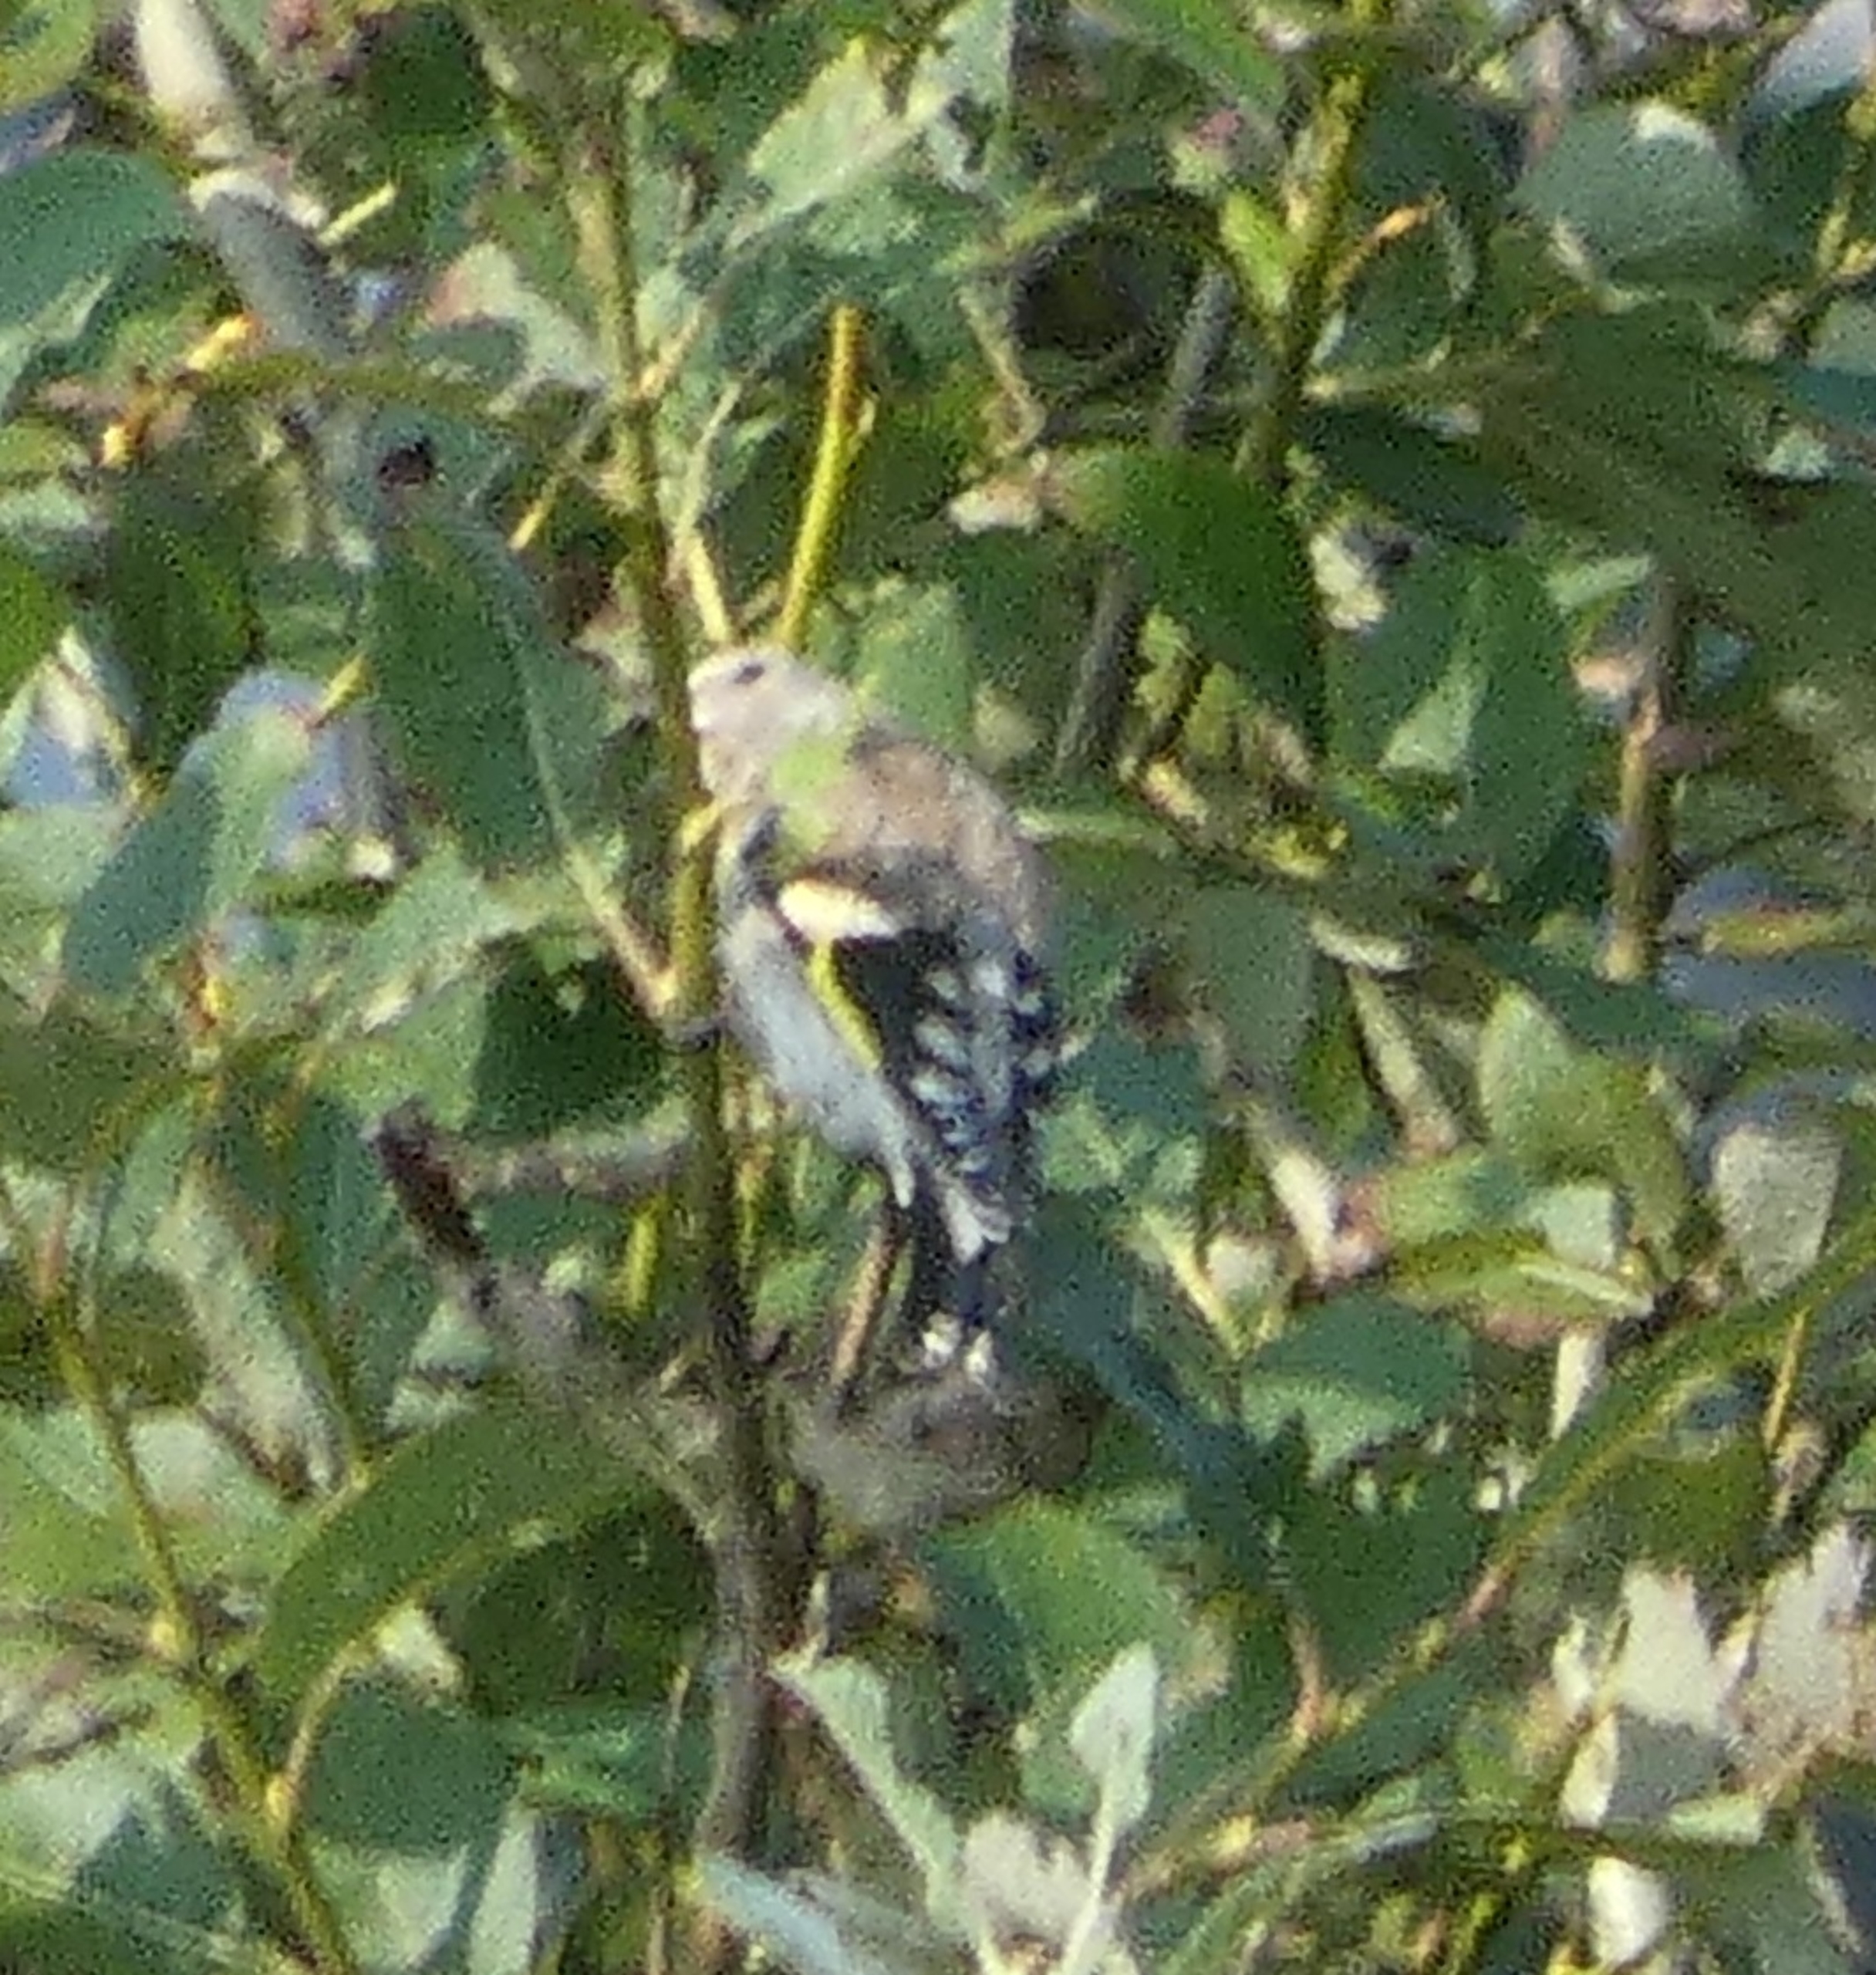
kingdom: Animalia
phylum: Chordata
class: Aves
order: Passeriformes
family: Fringillidae
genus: Carduelis
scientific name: Carduelis carduelis
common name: Stillits
